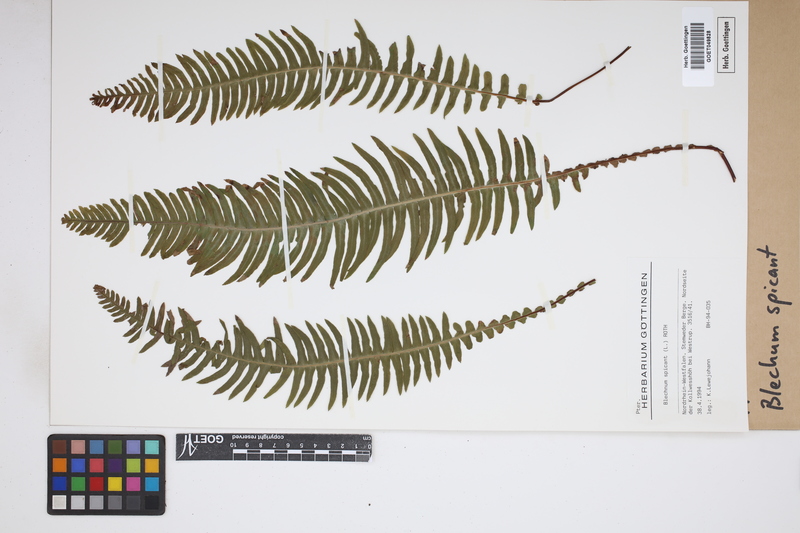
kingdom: Plantae
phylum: Tracheophyta
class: Polypodiopsida
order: Polypodiales
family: Blechnaceae
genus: Struthiopteris
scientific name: Struthiopteris spicant
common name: Deer fern
